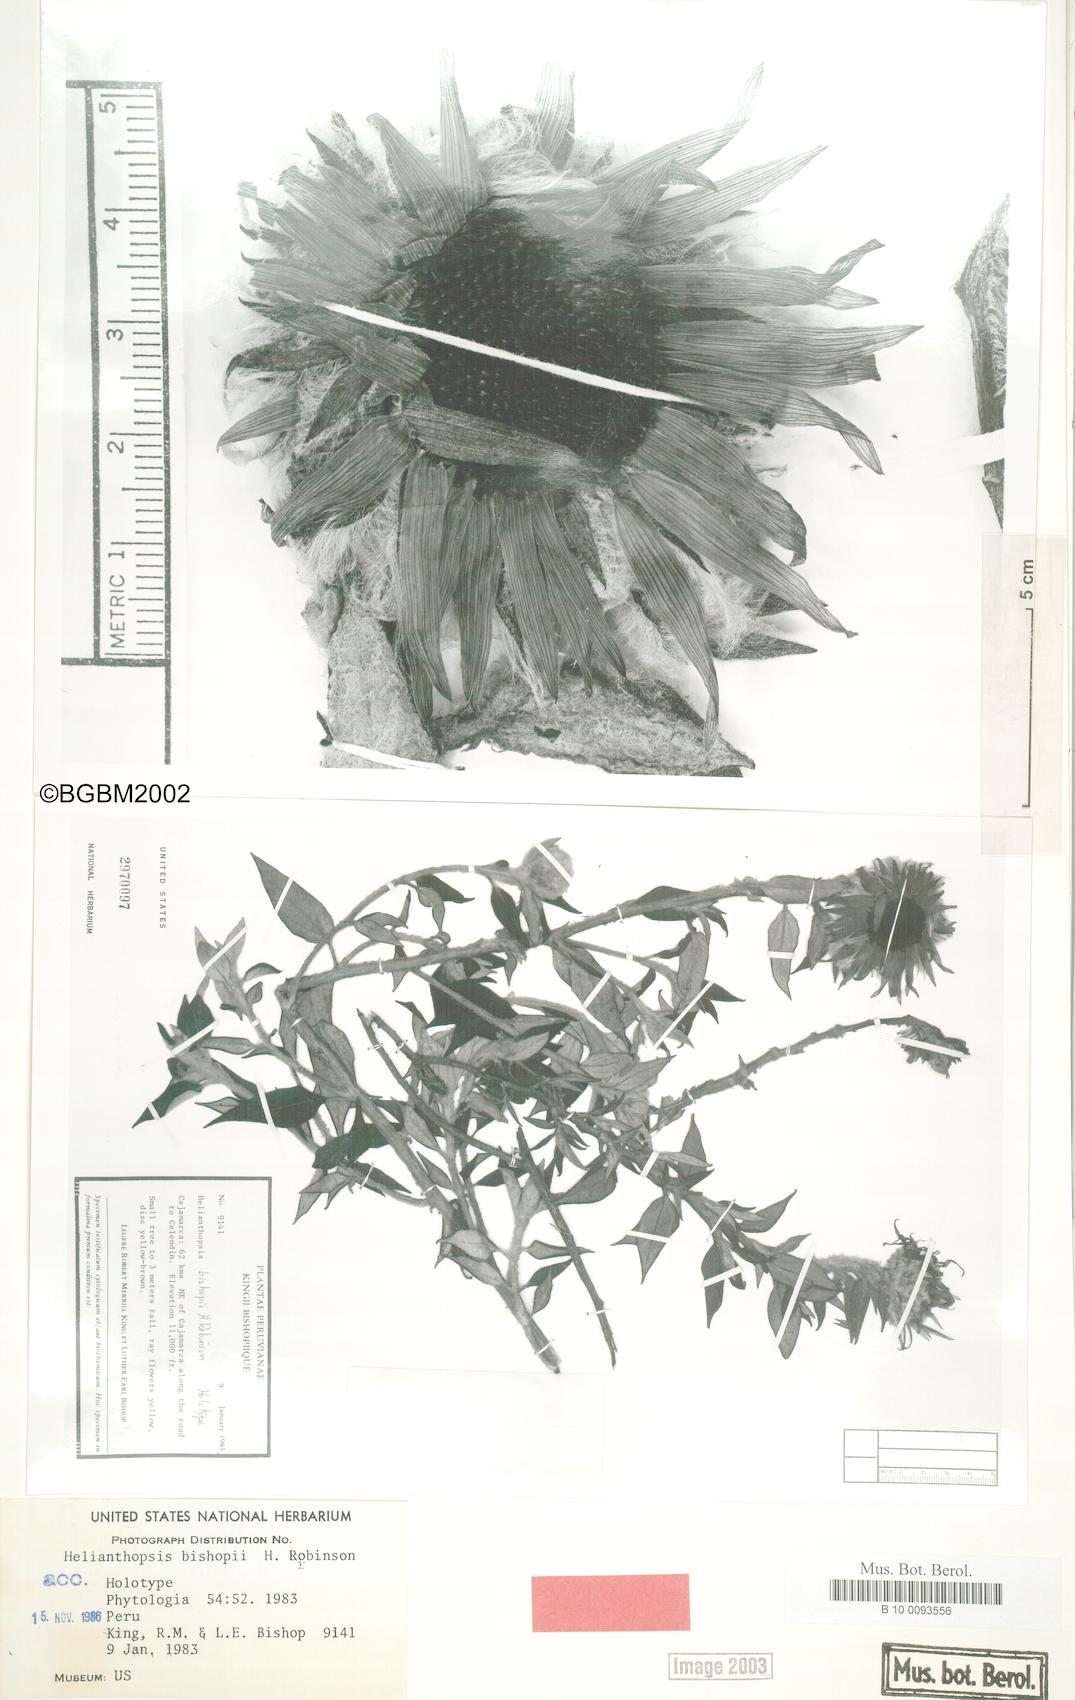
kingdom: Plantae
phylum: Tracheophyta
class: Magnoliopsida
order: Asterales
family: Asteraceae
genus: Pappobolus
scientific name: Pappobolus stuebelii
